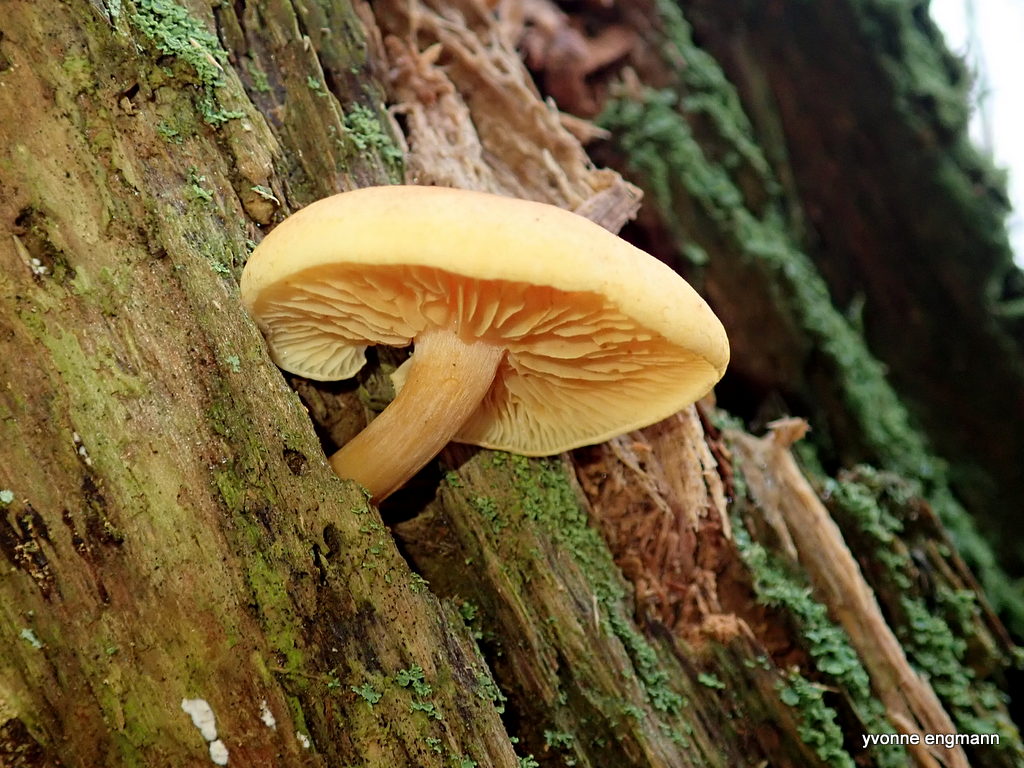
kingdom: Fungi
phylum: Basidiomycota
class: Agaricomycetes
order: Agaricales
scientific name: Agaricales
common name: champignonordenen
